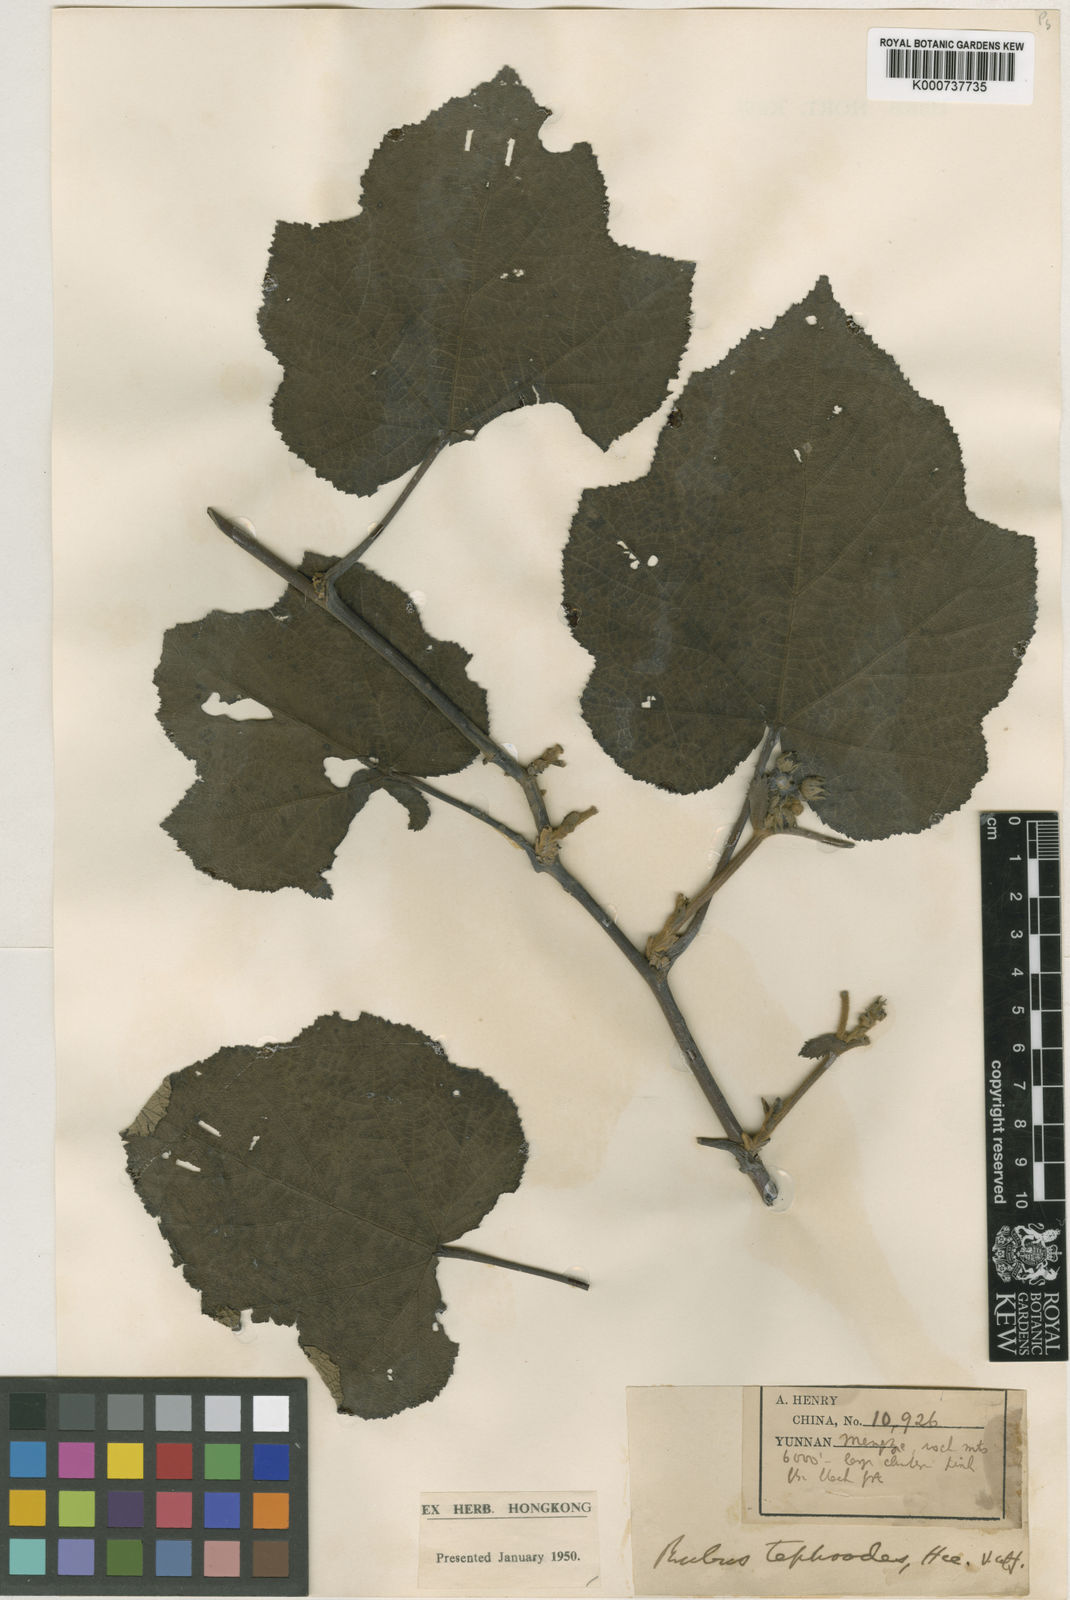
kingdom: Plantae
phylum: Tracheophyta
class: Magnoliopsida
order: Rosales
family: Rosaceae
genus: Rubus
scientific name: Rubus setchuenensis
